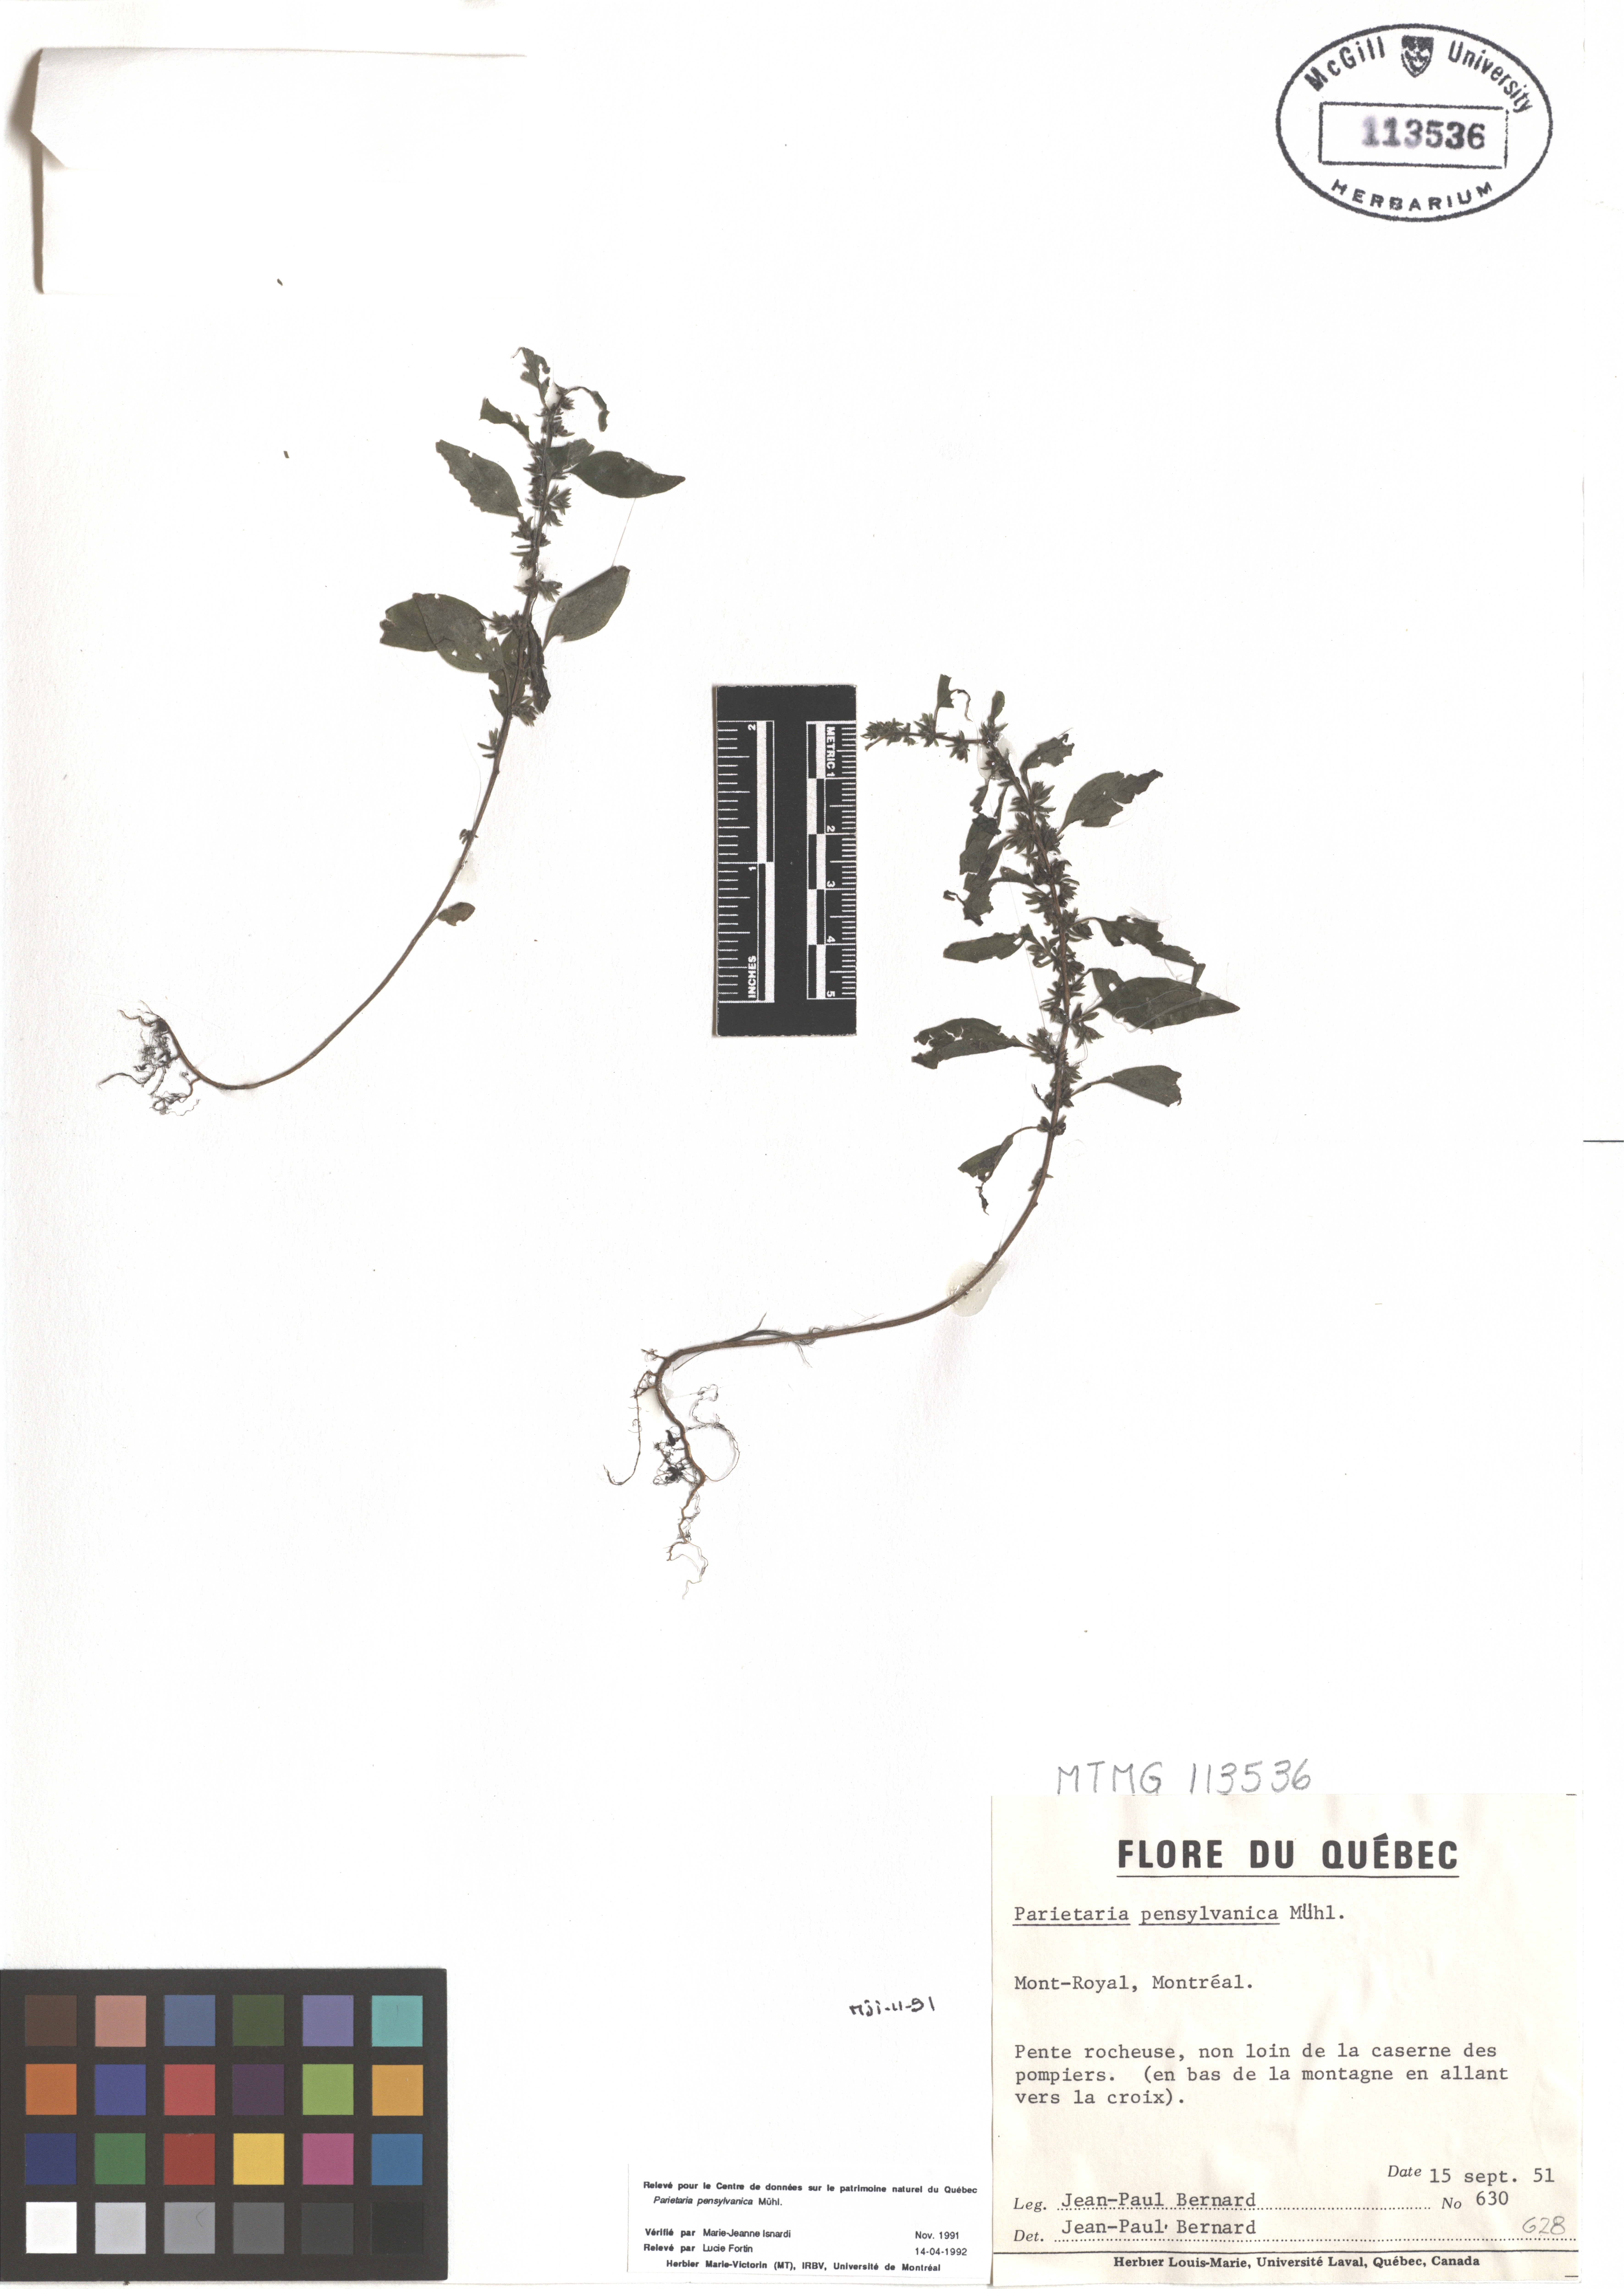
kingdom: Plantae
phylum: Tracheophyta
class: Magnoliopsida
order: Rosales
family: Urticaceae
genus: Parietaria
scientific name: Parietaria pensylvanica
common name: Pennsylvania pellitory
